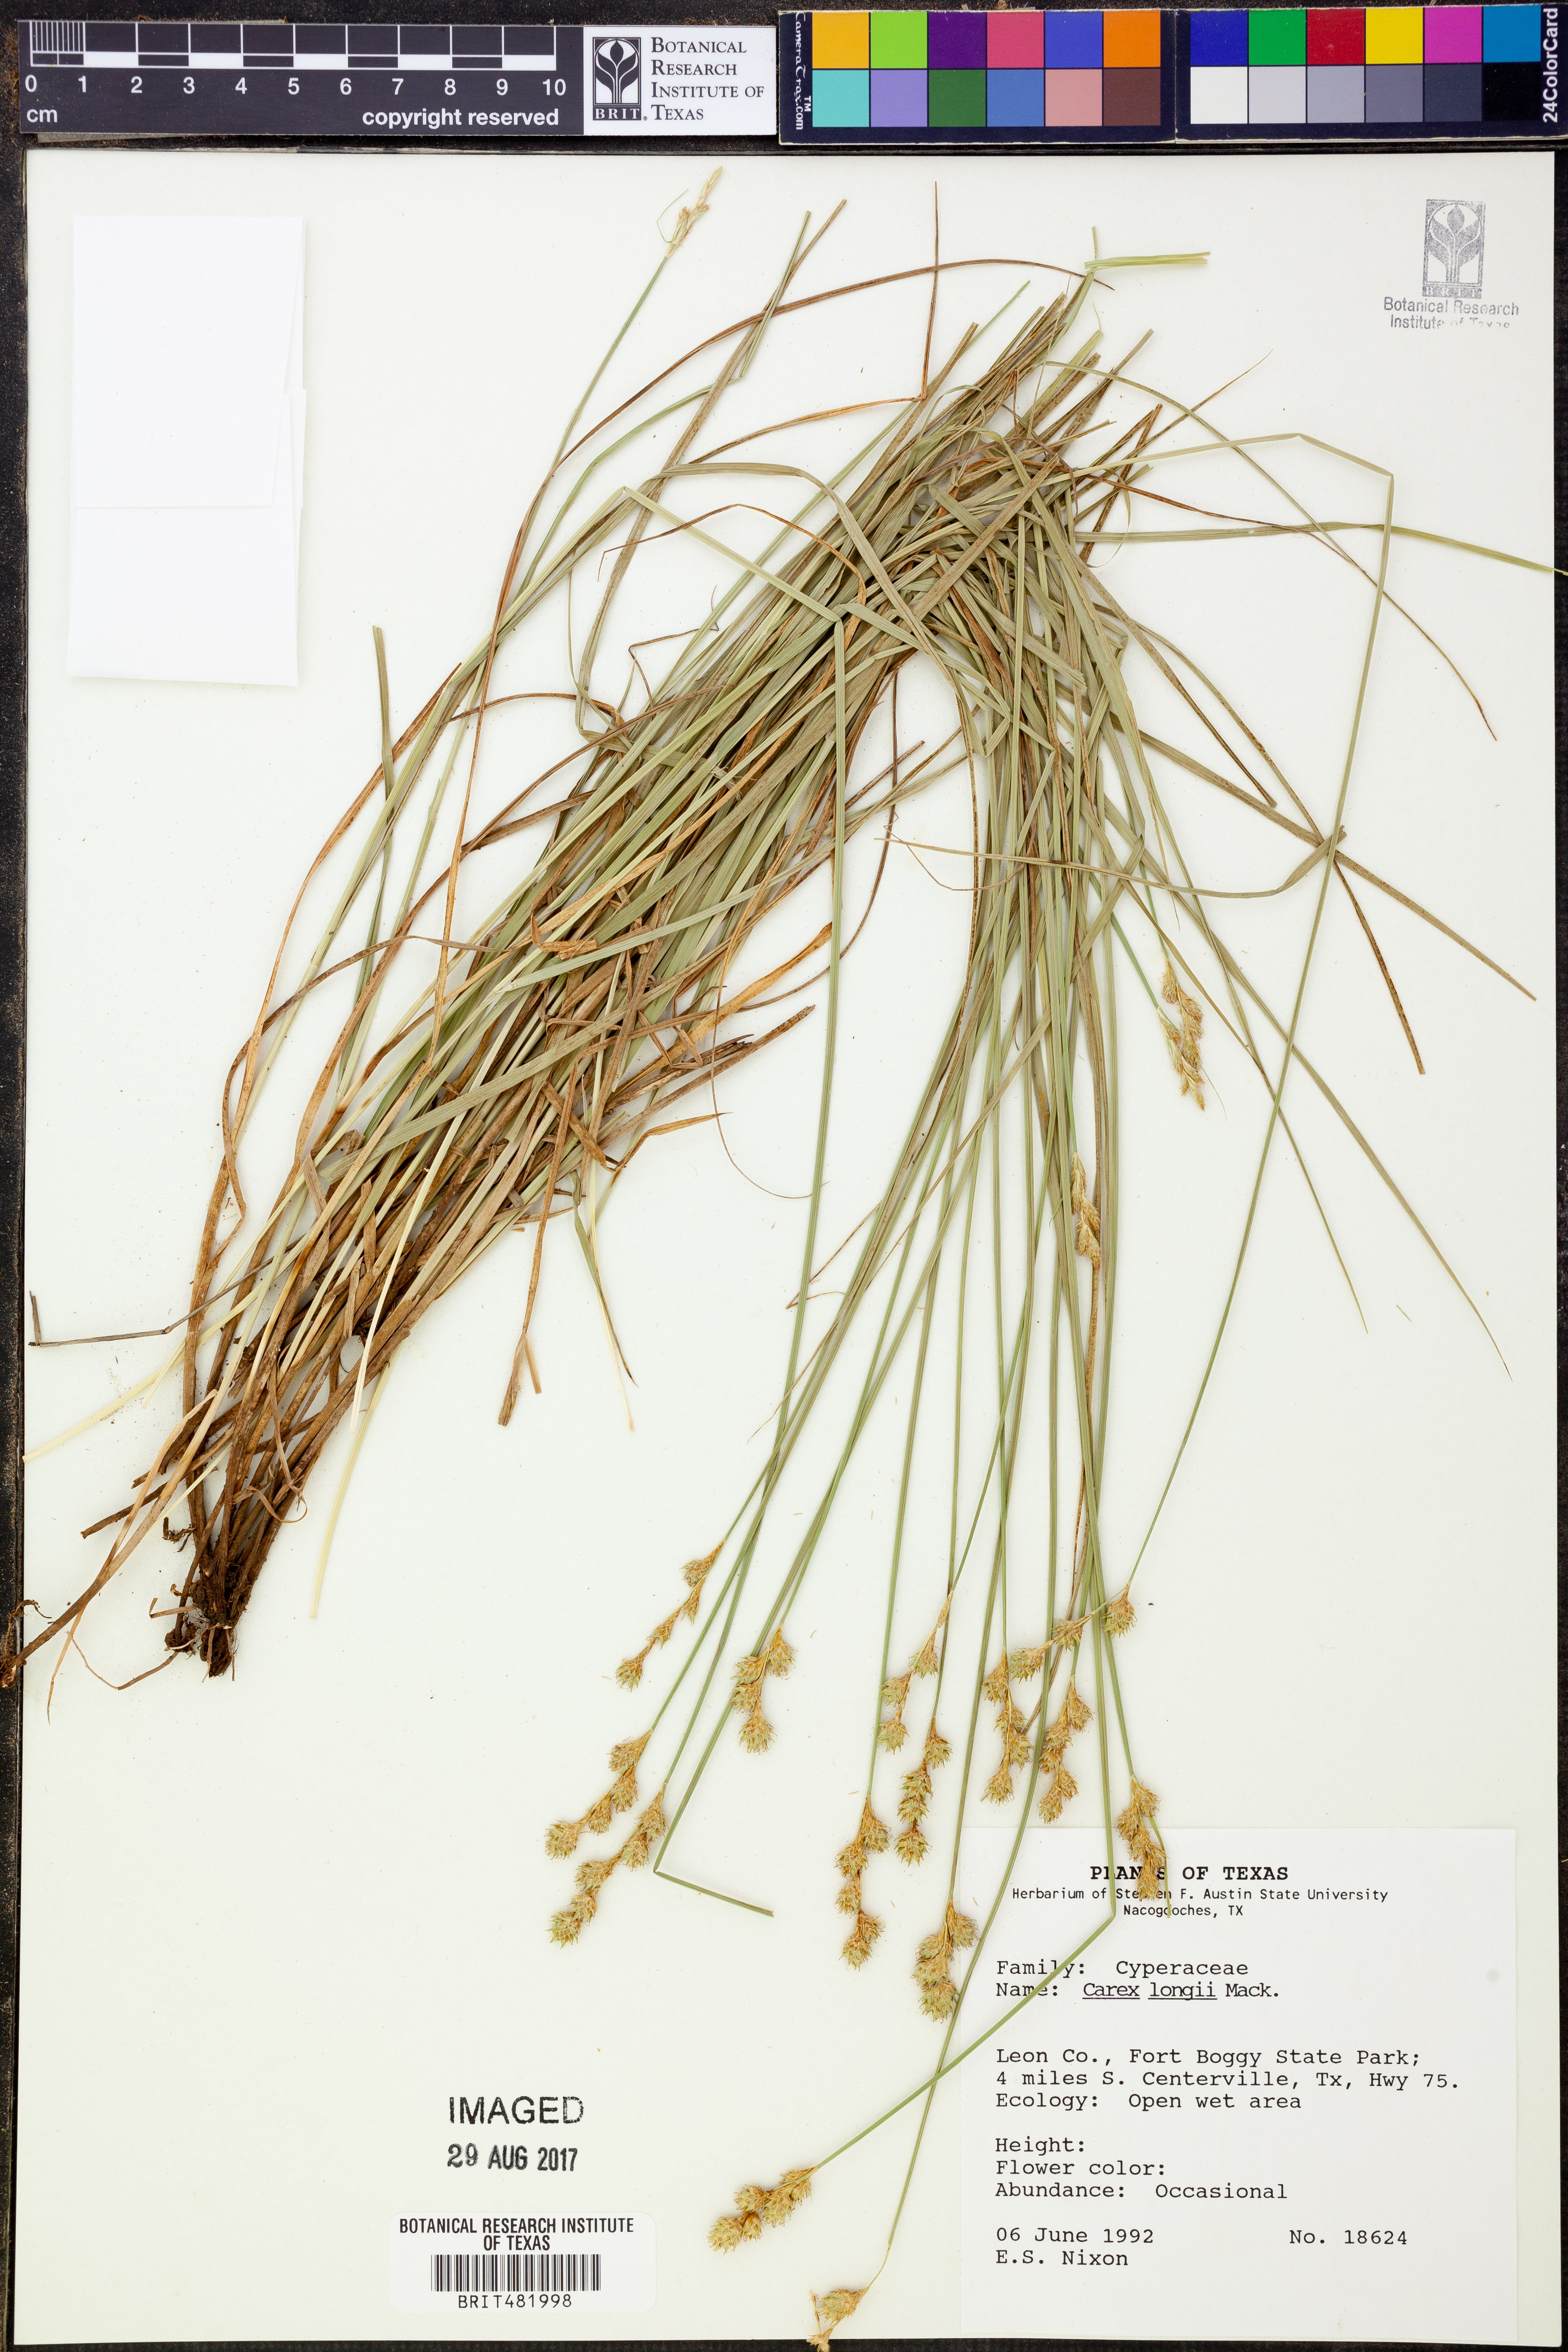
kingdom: Plantae
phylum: Tracheophyta
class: Liliopsida
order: Poales
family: Cyperaceae
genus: Carex
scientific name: Carex longii
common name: Long's sedge
